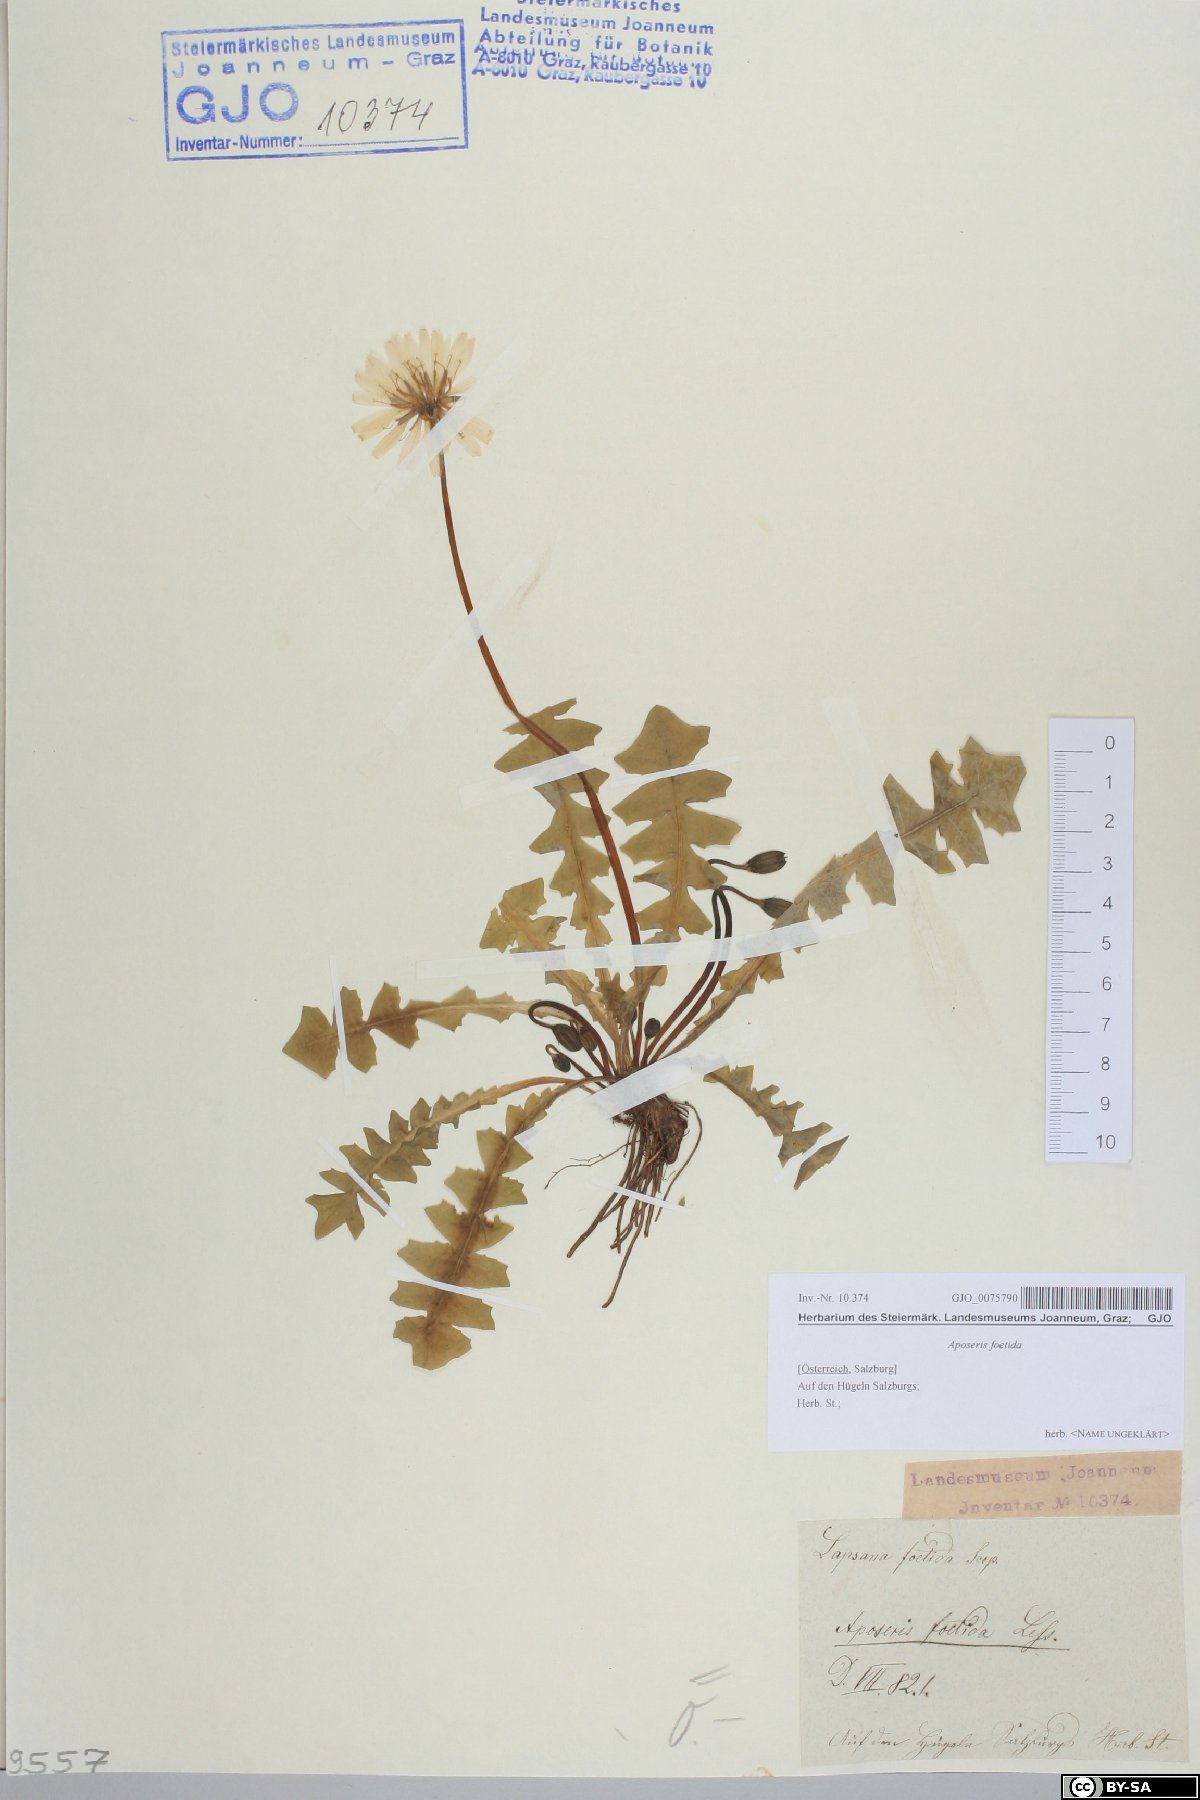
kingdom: Plantae
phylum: Tracheophyta
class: Magnoliopsida
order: Asterales
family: Asteraceae
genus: Aposeris
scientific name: Aposeris foetida
